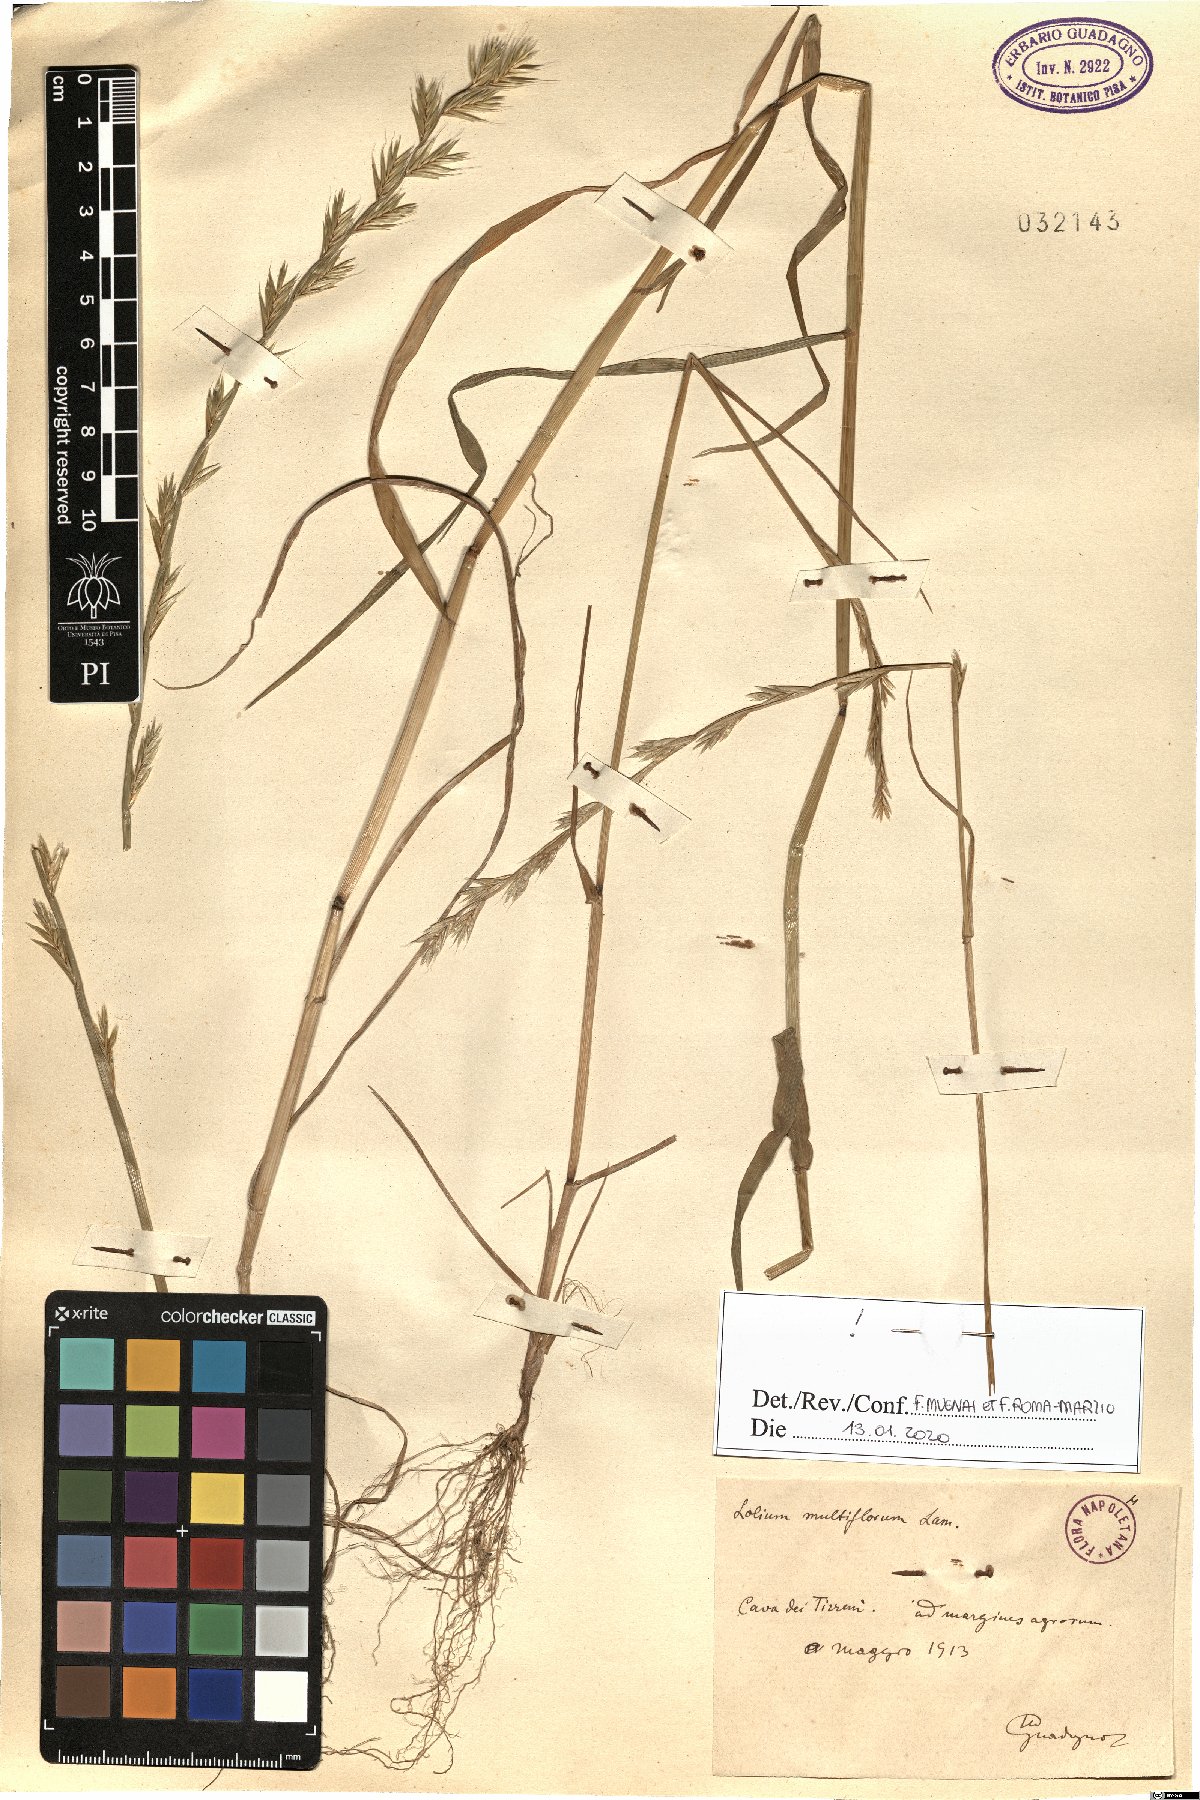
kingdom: Plantae
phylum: Tracheophyta
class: Liliopsida
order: Poales
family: Poaceae
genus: Lolium
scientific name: Lolium multiflorum
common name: Annual ryegrass
